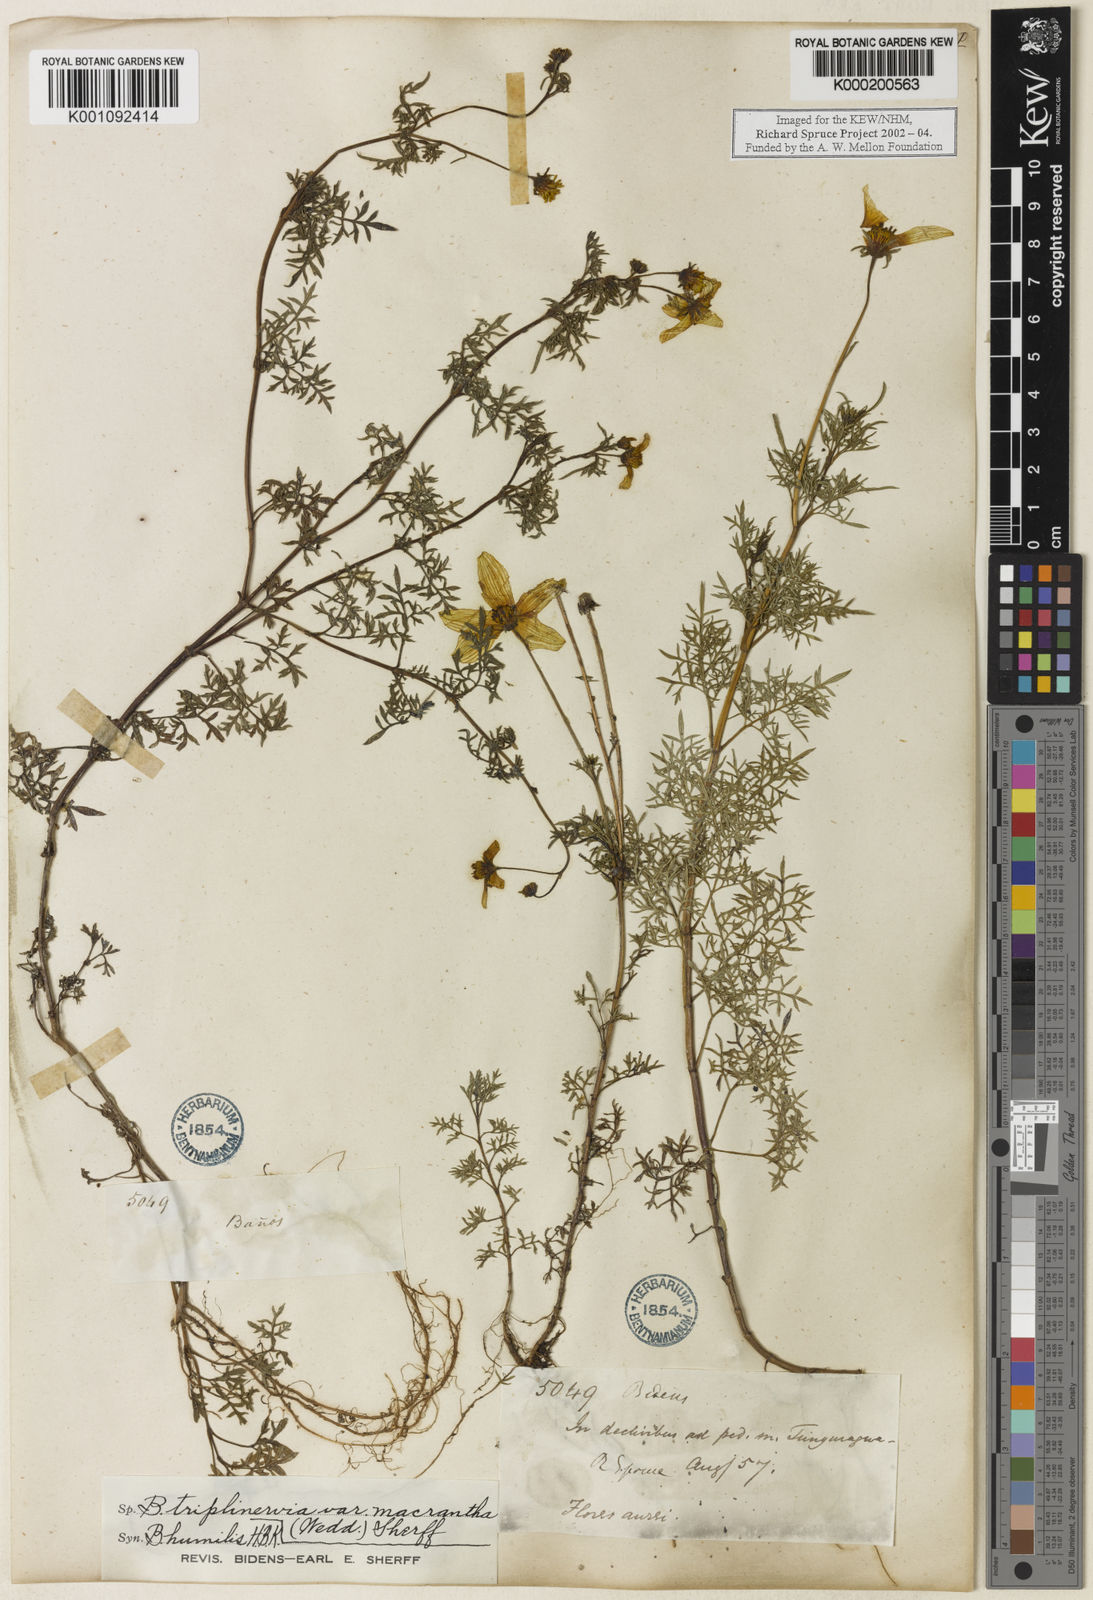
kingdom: Plantae
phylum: Tracheophyta
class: Magnoliopsida
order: Asterales
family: Asteraceae
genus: Bidens
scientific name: Bidens triplinervia
